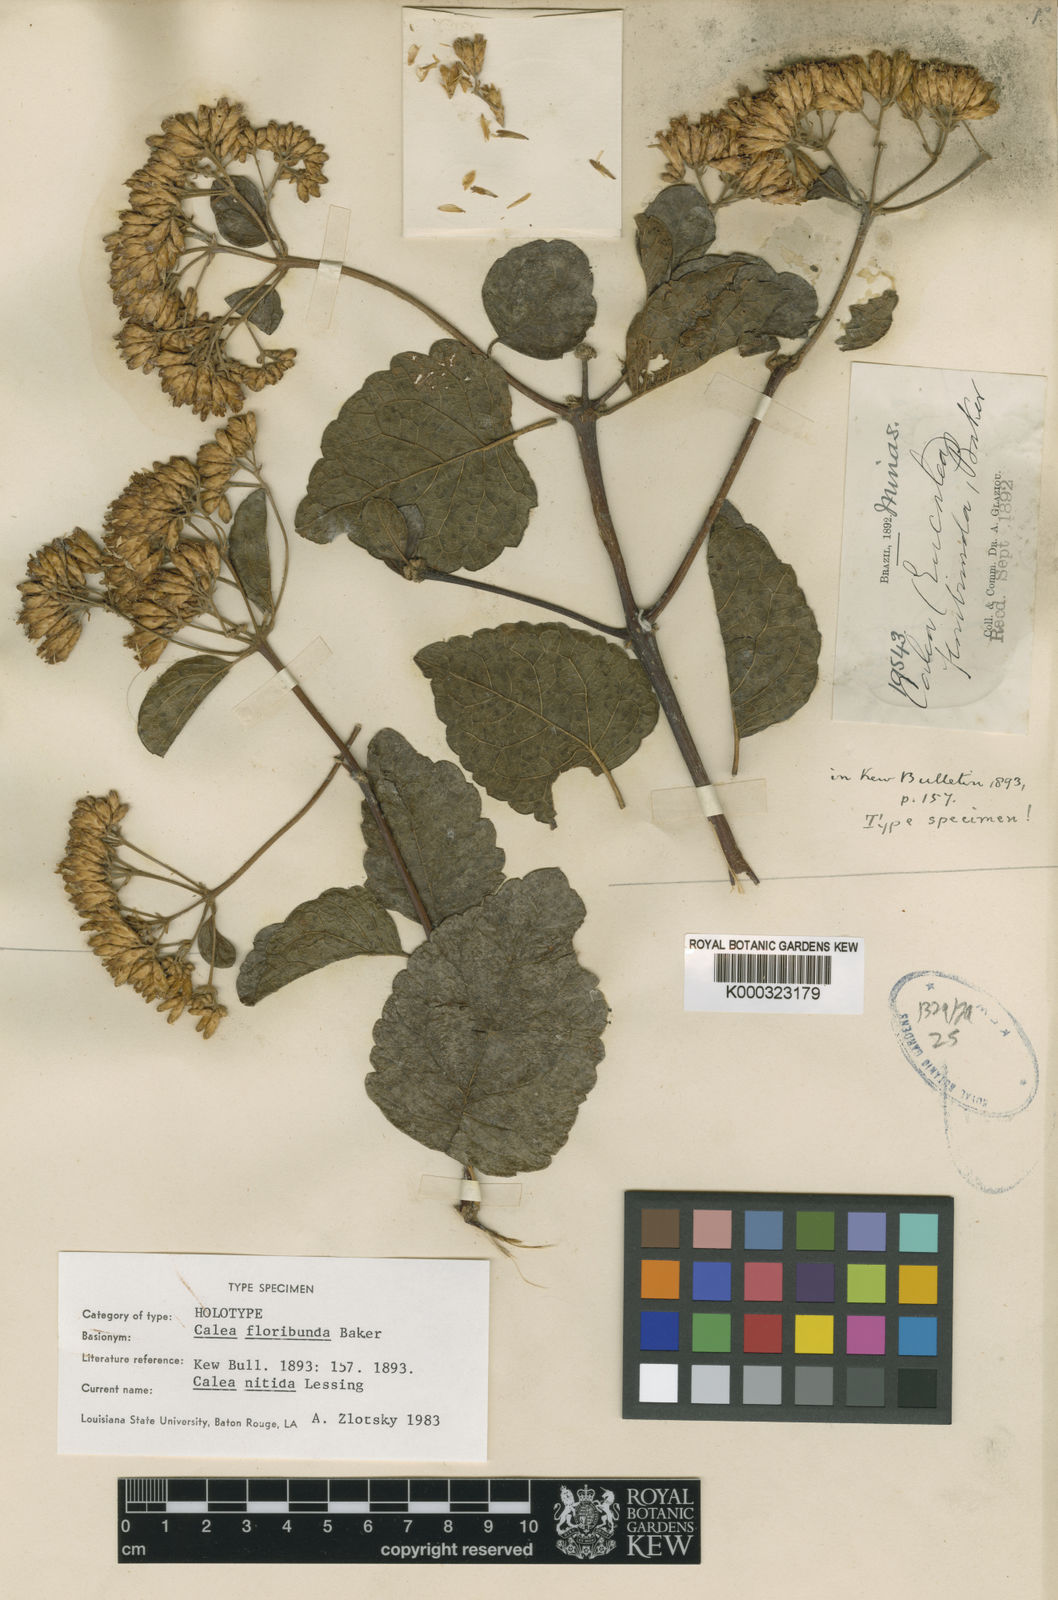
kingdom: Plantae
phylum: Tracheophyta
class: Magnoliopsida
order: Asterales
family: Asteraceae
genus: Calea
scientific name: Calea nitida
